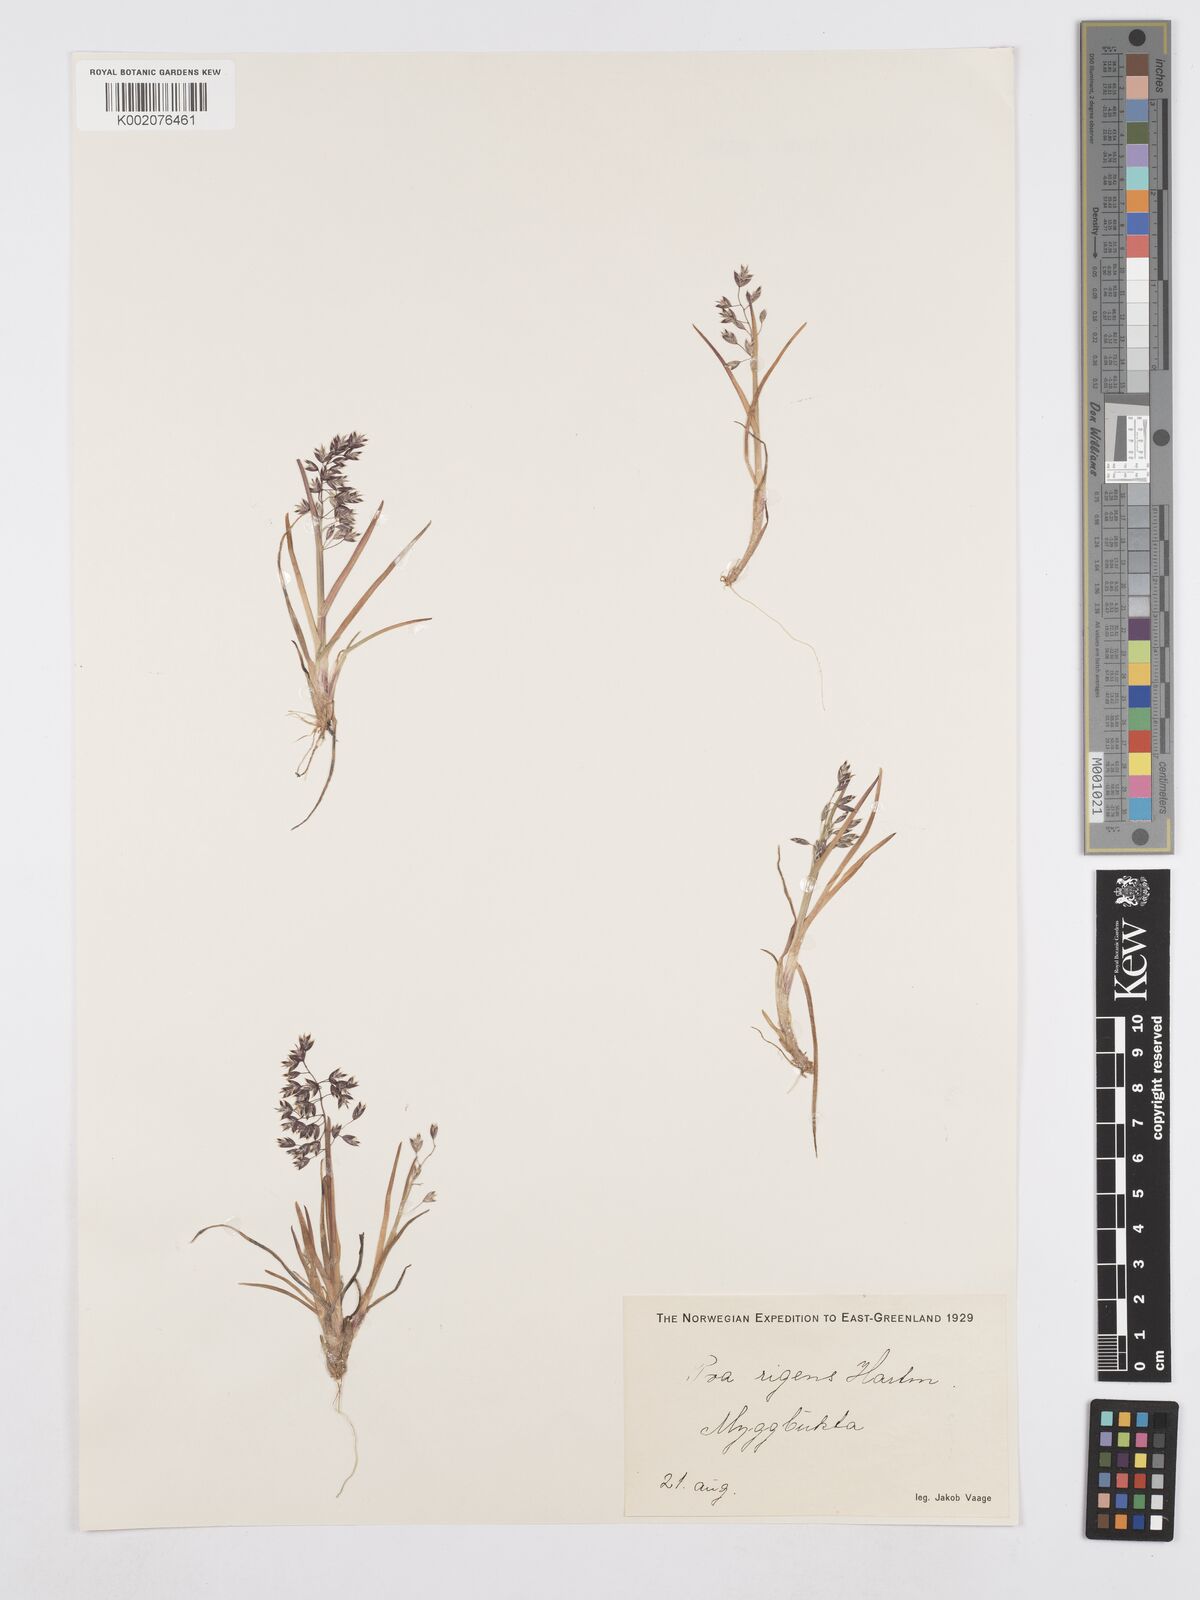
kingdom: Plantae
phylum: Tracheophyta
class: Liliopsida
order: Poales
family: Poaceae
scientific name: Poaceae
